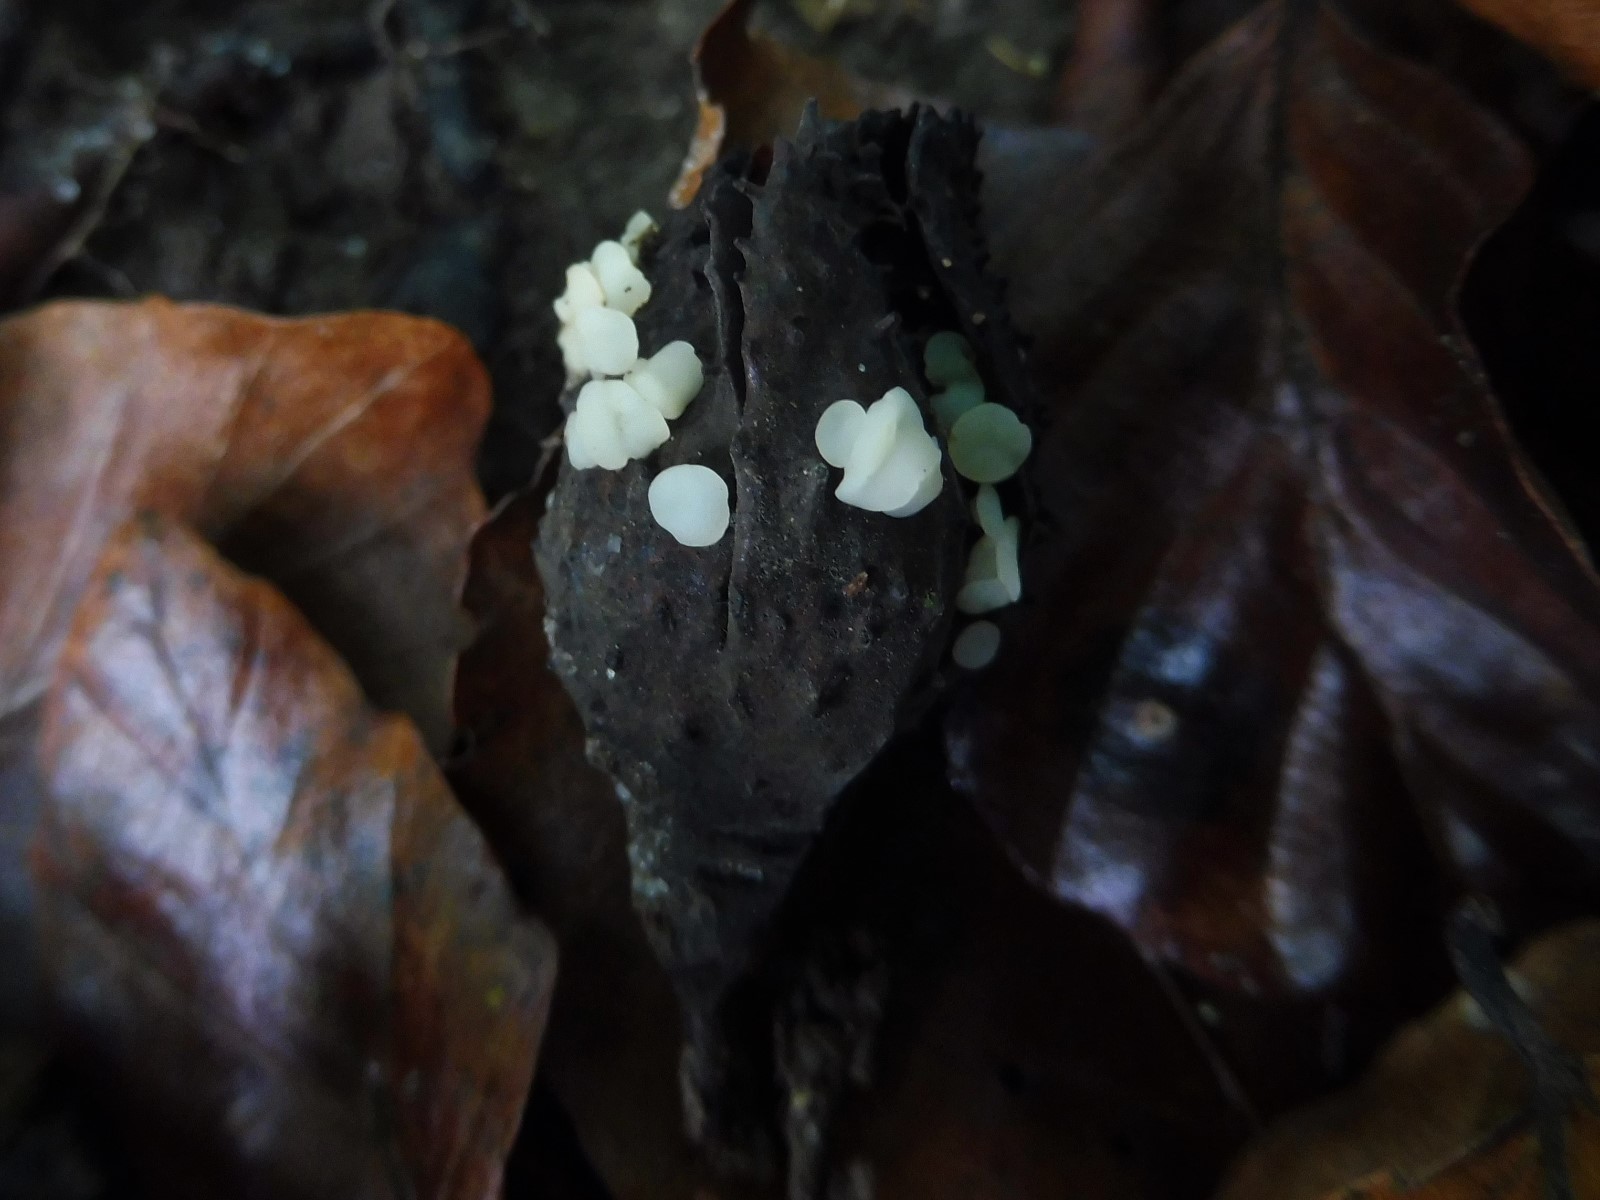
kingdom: Fungi
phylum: Ascomycota
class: Leotiomycetes
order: Helotiales
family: Helotiaceae
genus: Hymenoscyphus
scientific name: Hymenoscyphus fagineus
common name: vellugtende stilkskive
